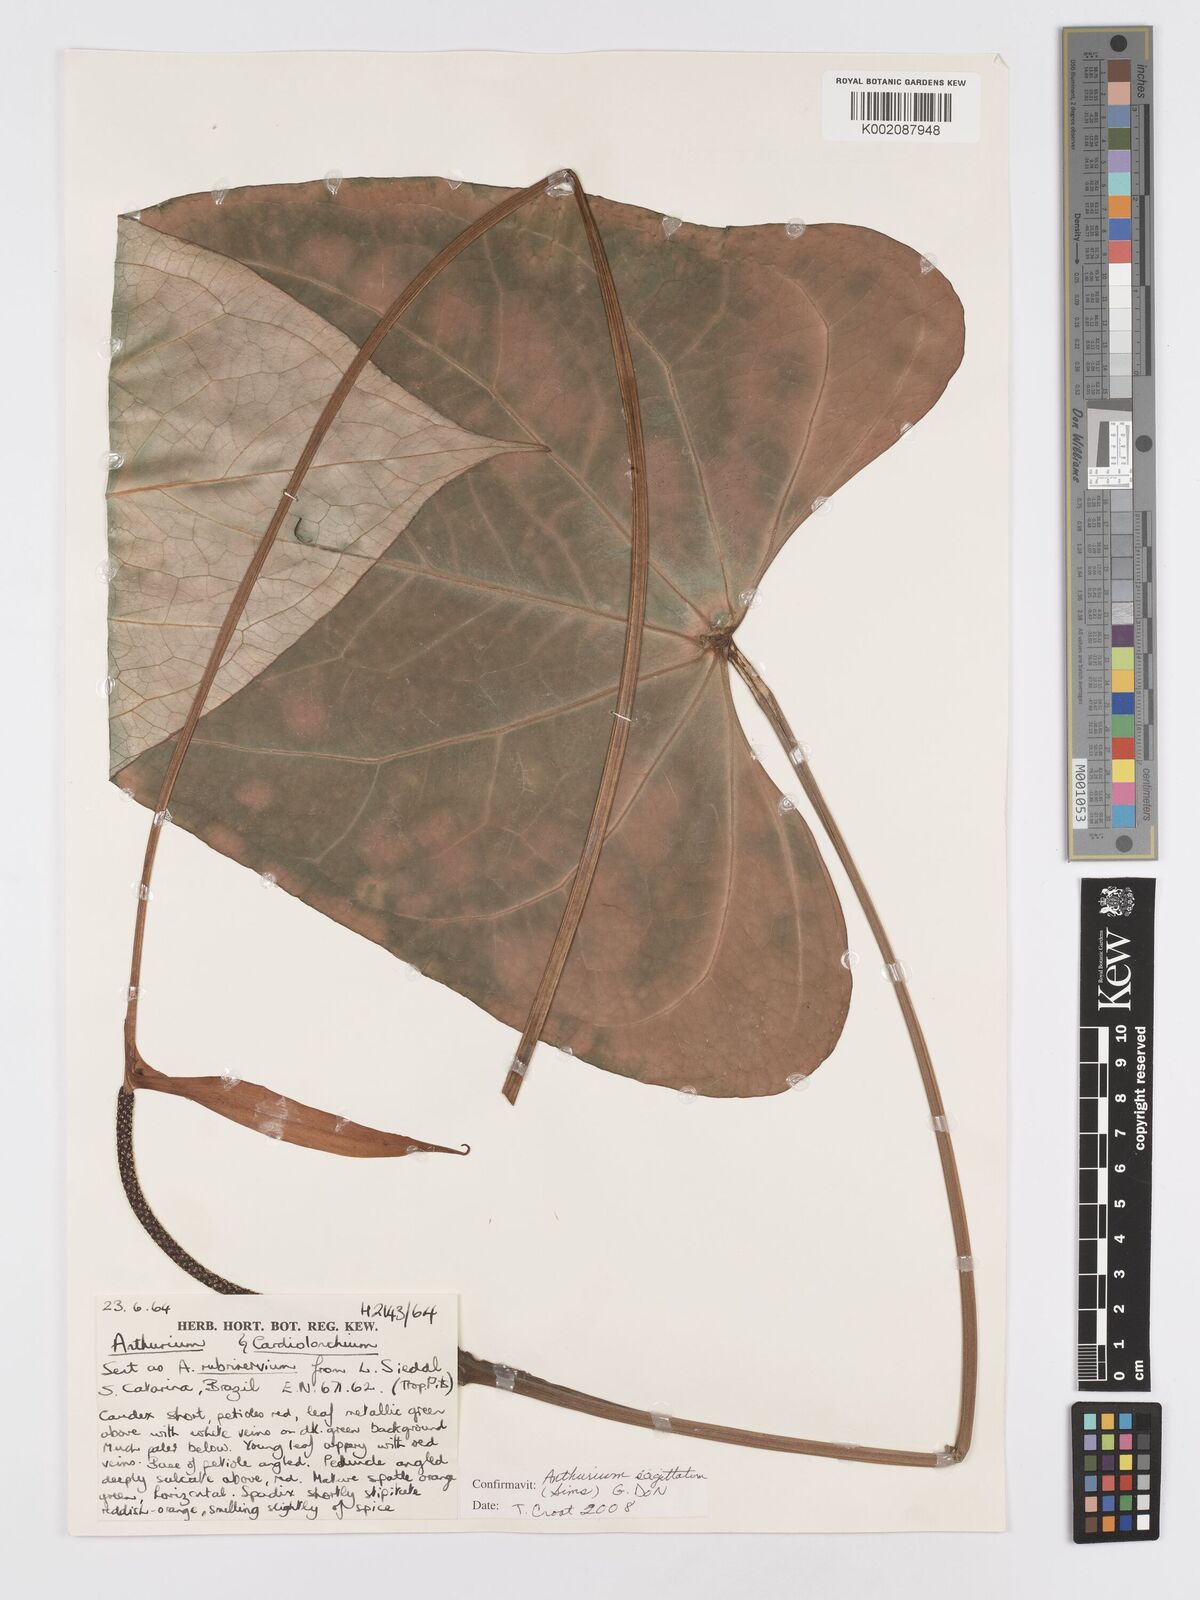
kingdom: Plantae
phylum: Tracheophyta
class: Liliopsida
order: Alismatales
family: Araceae
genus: Anthurium
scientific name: Anthurium sagittale
